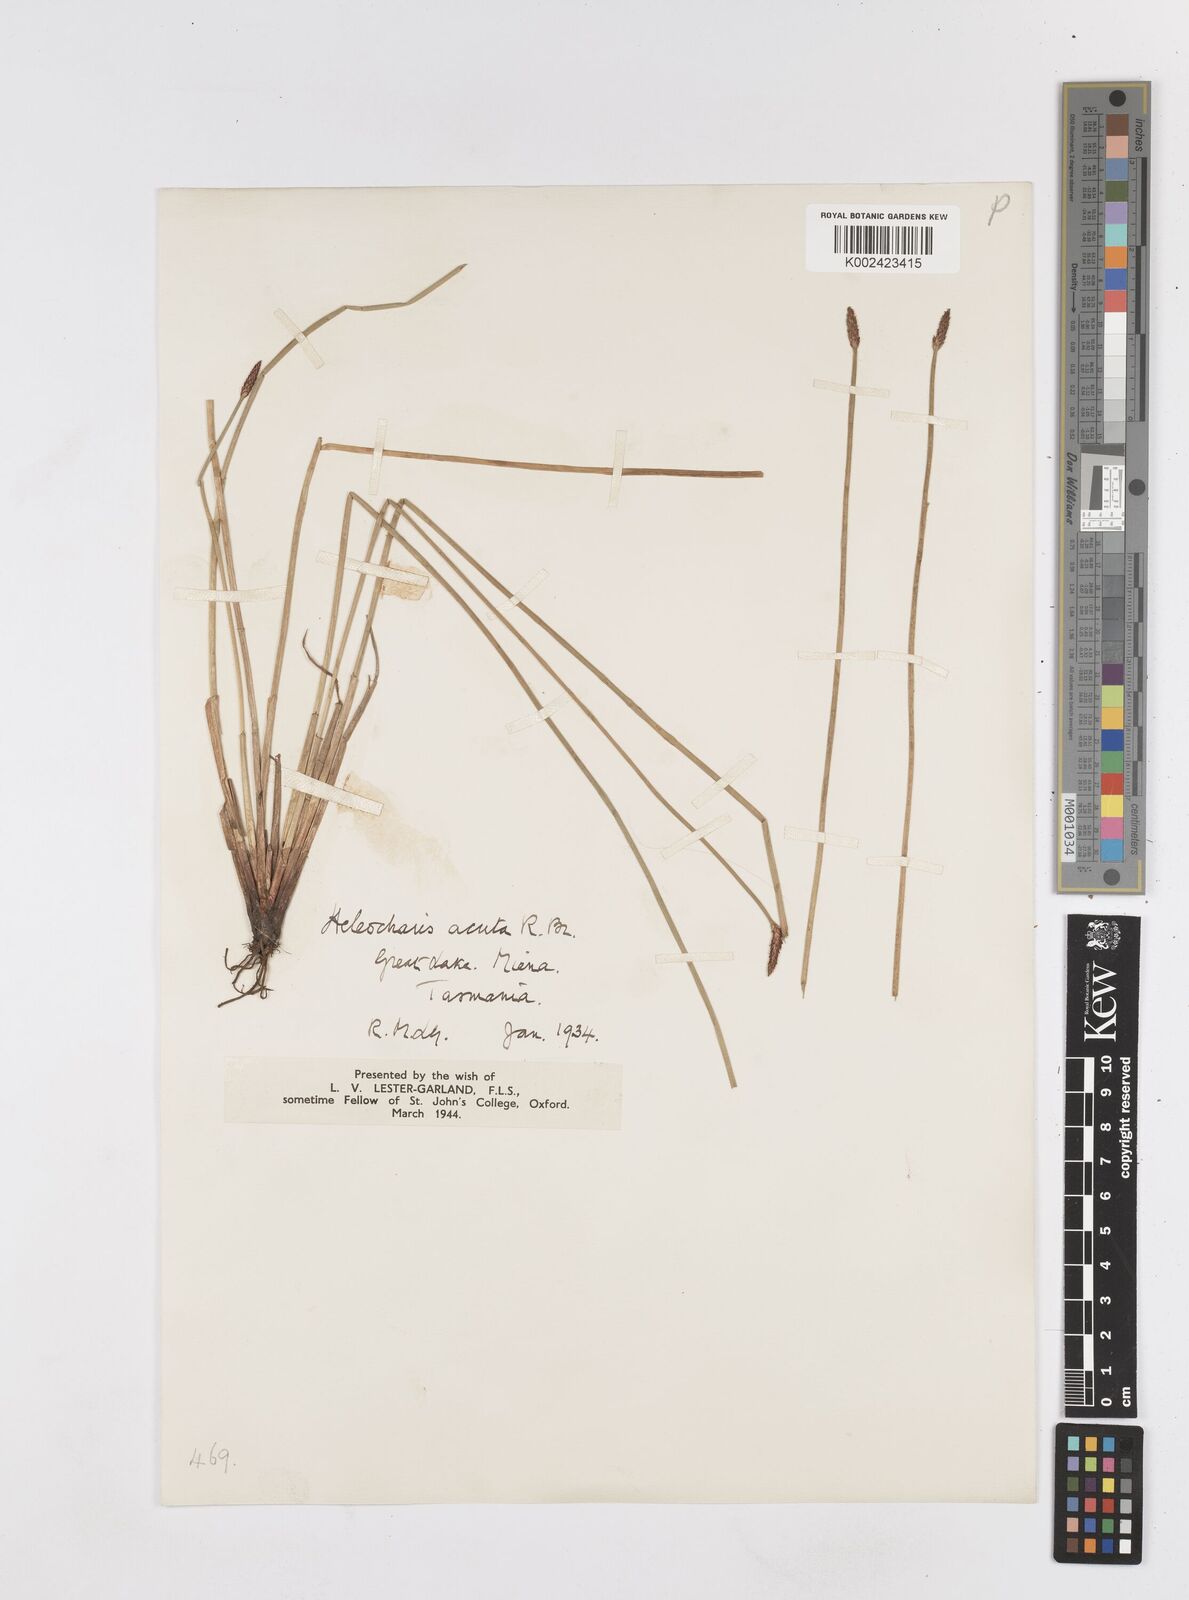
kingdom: Plantae
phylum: Tracheophyta
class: Liliopsida
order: Poales
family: Cyperaceae
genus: Eleocharis
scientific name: Eleocharis acuta
